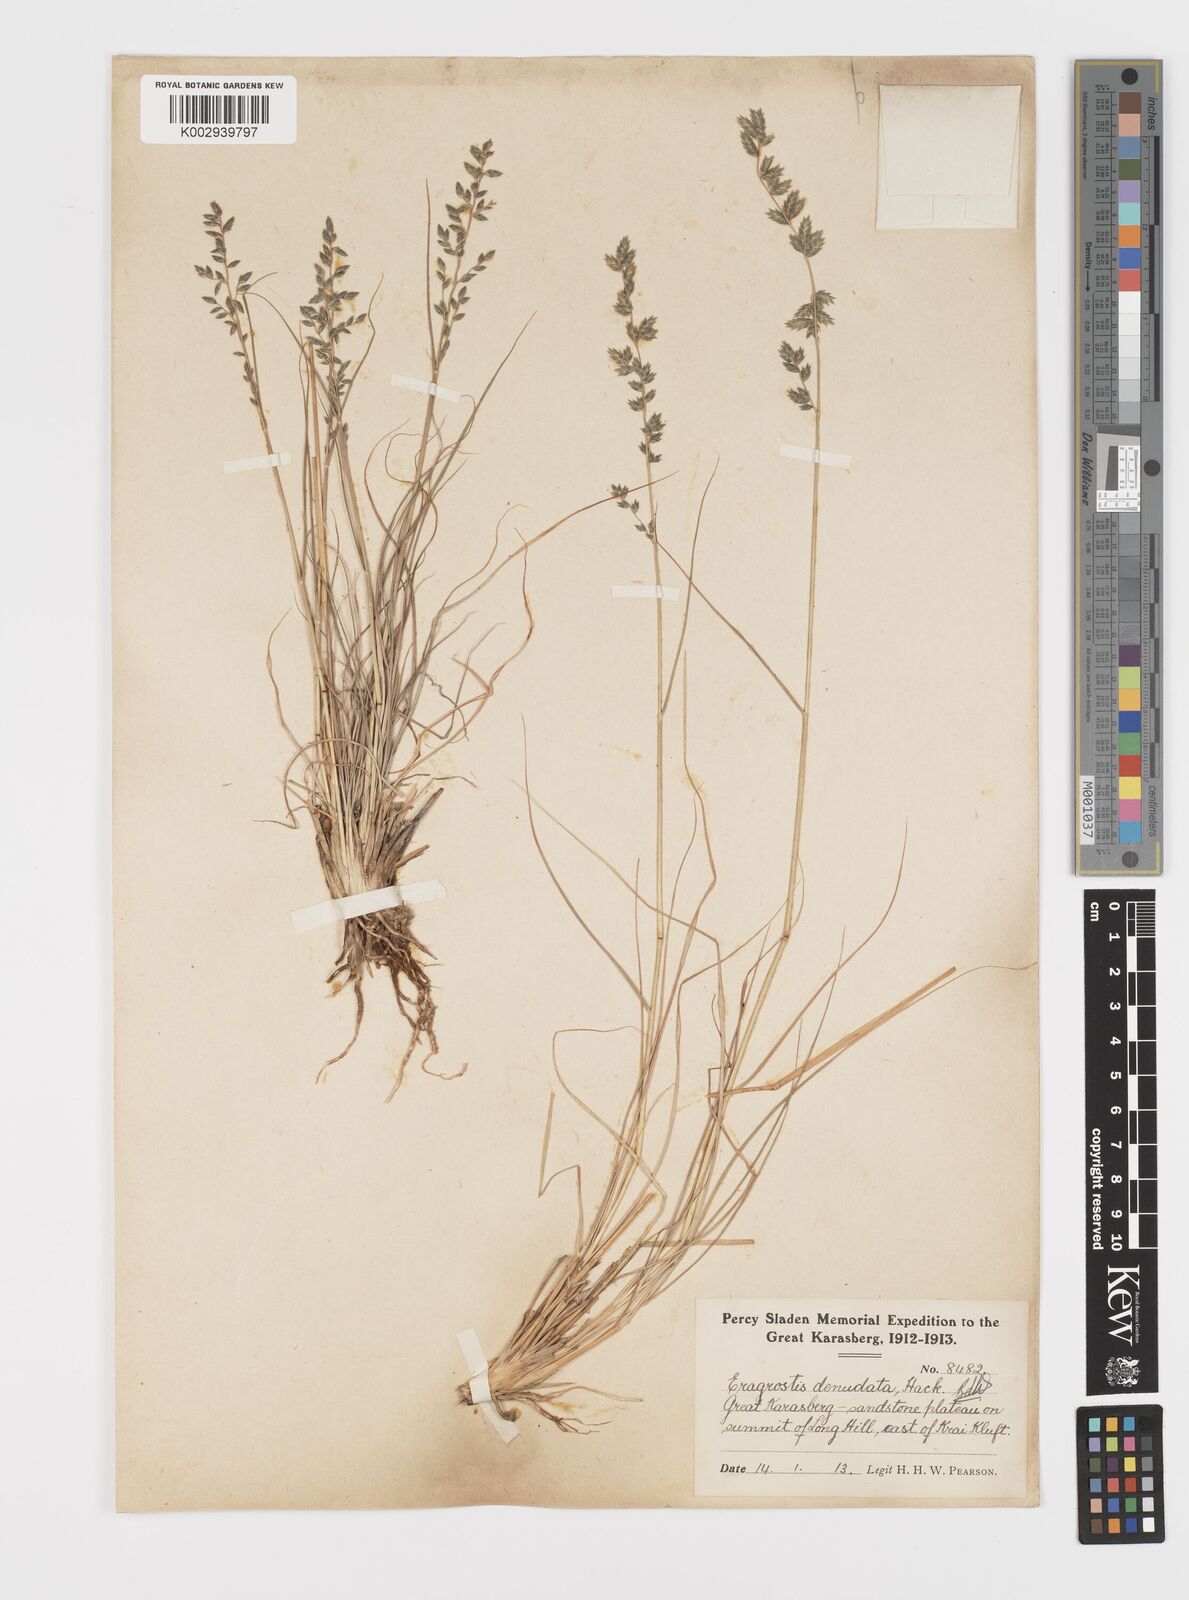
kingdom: Plantae
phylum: Tracheophyta
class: Liliopsida
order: Poales
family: Poaceae
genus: Eragrostis
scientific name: Eragrostis nindensis
